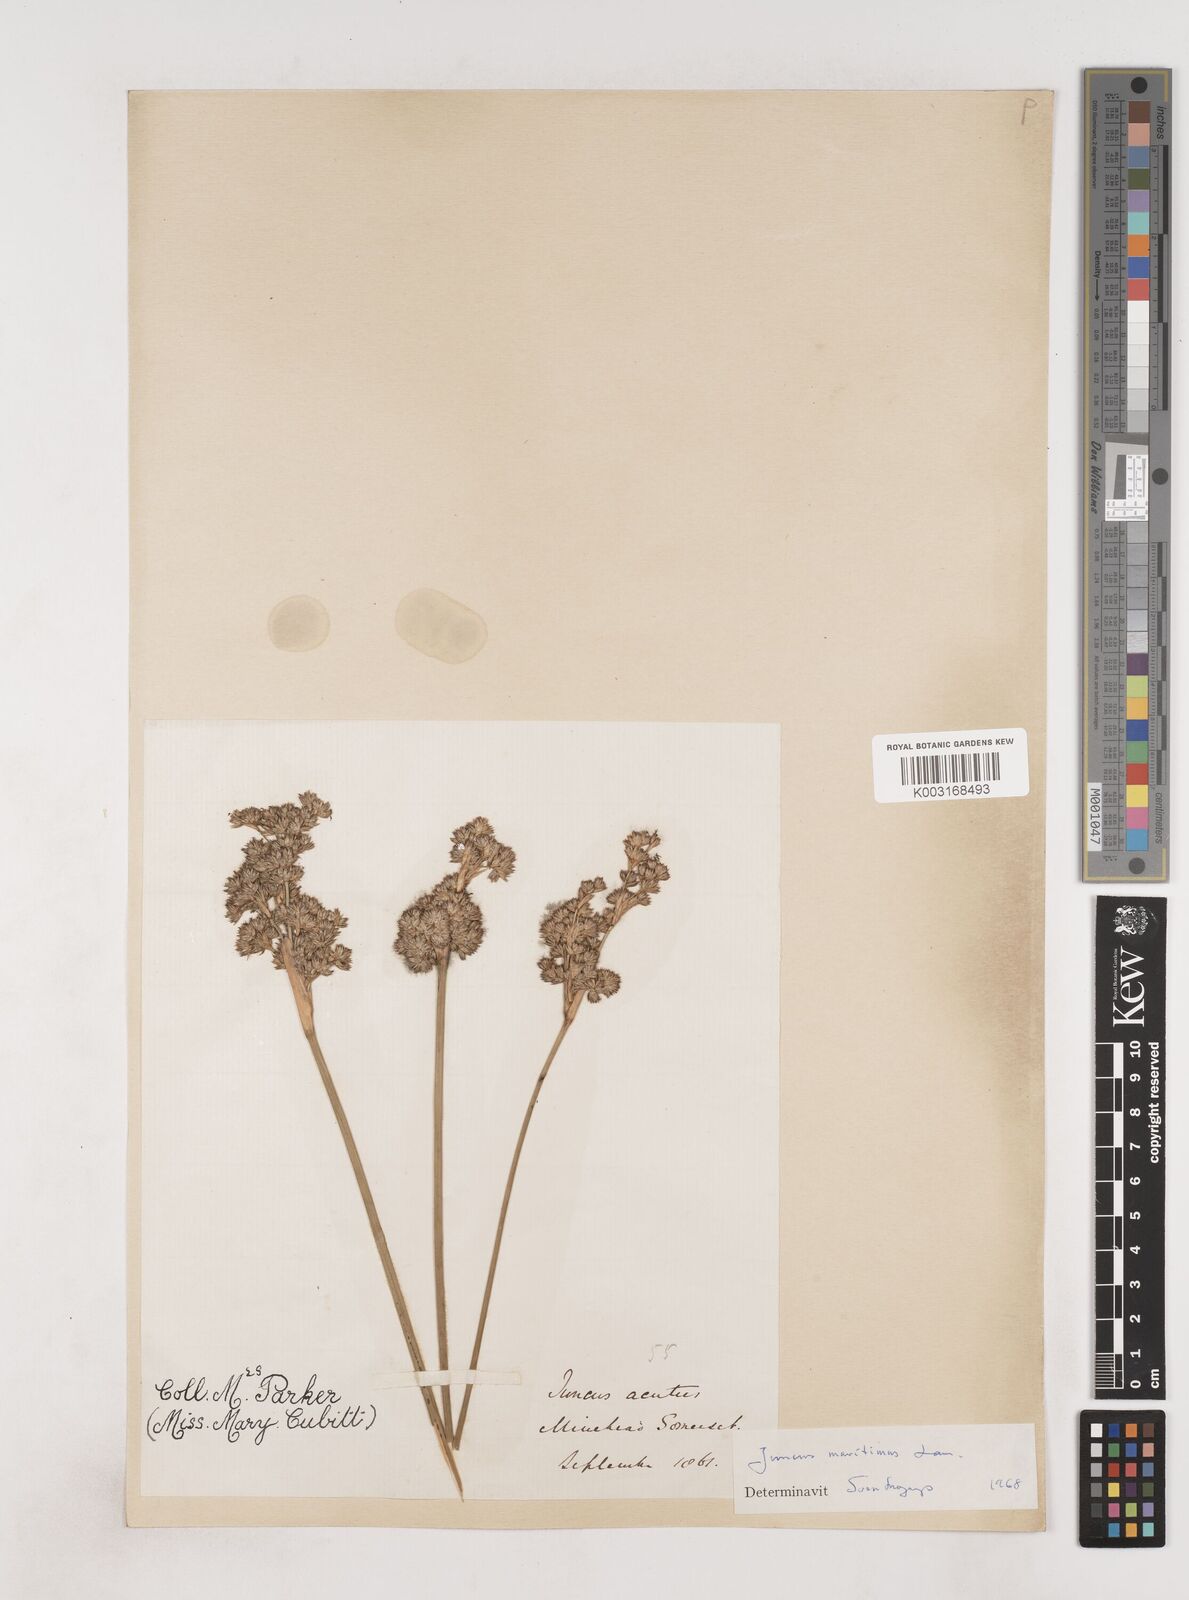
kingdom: Plantae
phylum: Tracheophyta
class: Liliopsida
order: Poales
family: Juncaceae
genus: Juncus
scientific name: Juncus maritimus
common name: Sea rush
